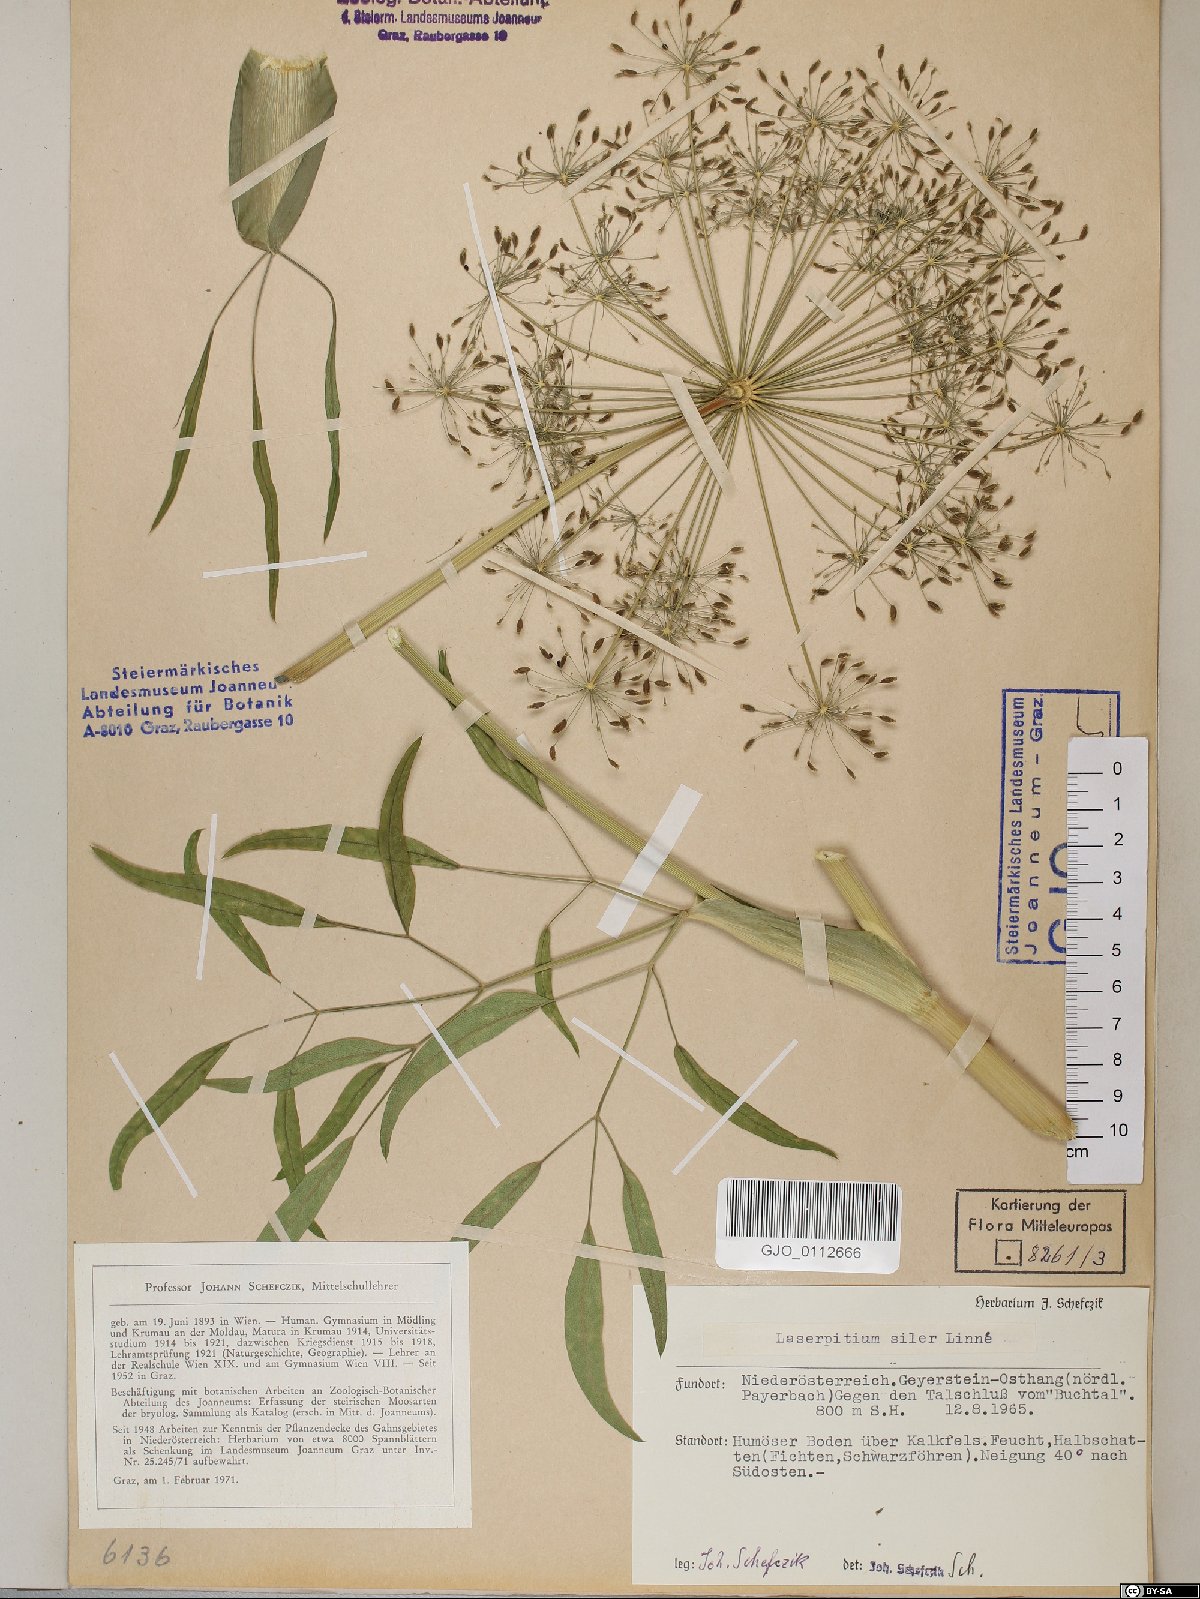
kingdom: Plantae
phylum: Tracheophyta
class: Magnoliopsida
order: Apiales
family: Apiaceae
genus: Siler
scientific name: Siler montanum
